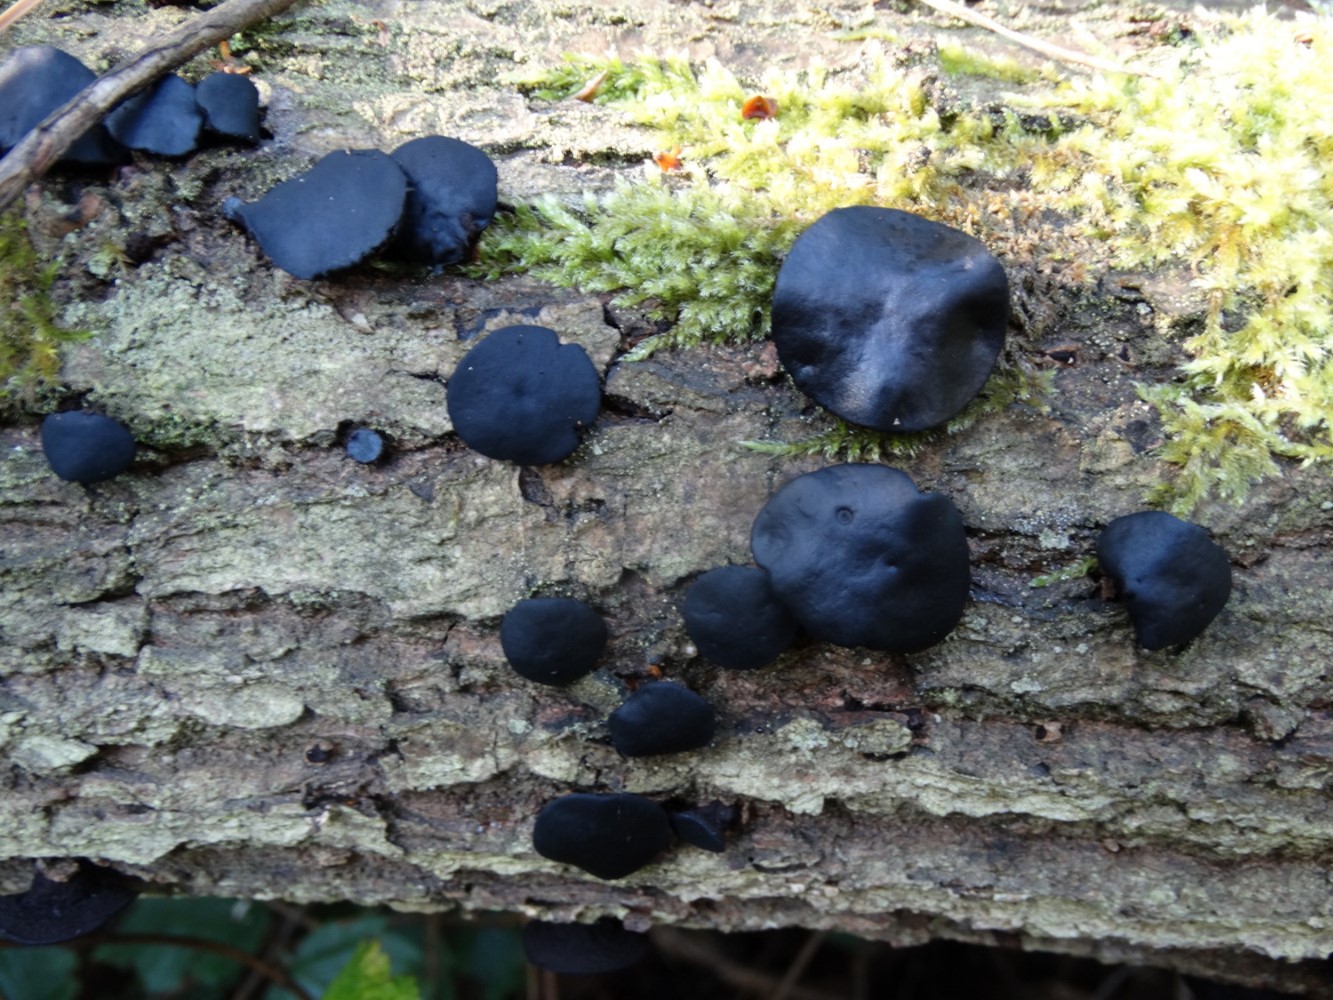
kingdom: Fungi
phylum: Ascomycota
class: Leotiomycetes
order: Phacidiales
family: Phacidiaceae
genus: Bulgaria
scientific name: Bulgaria inquinans
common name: afsmittende topsvamp
